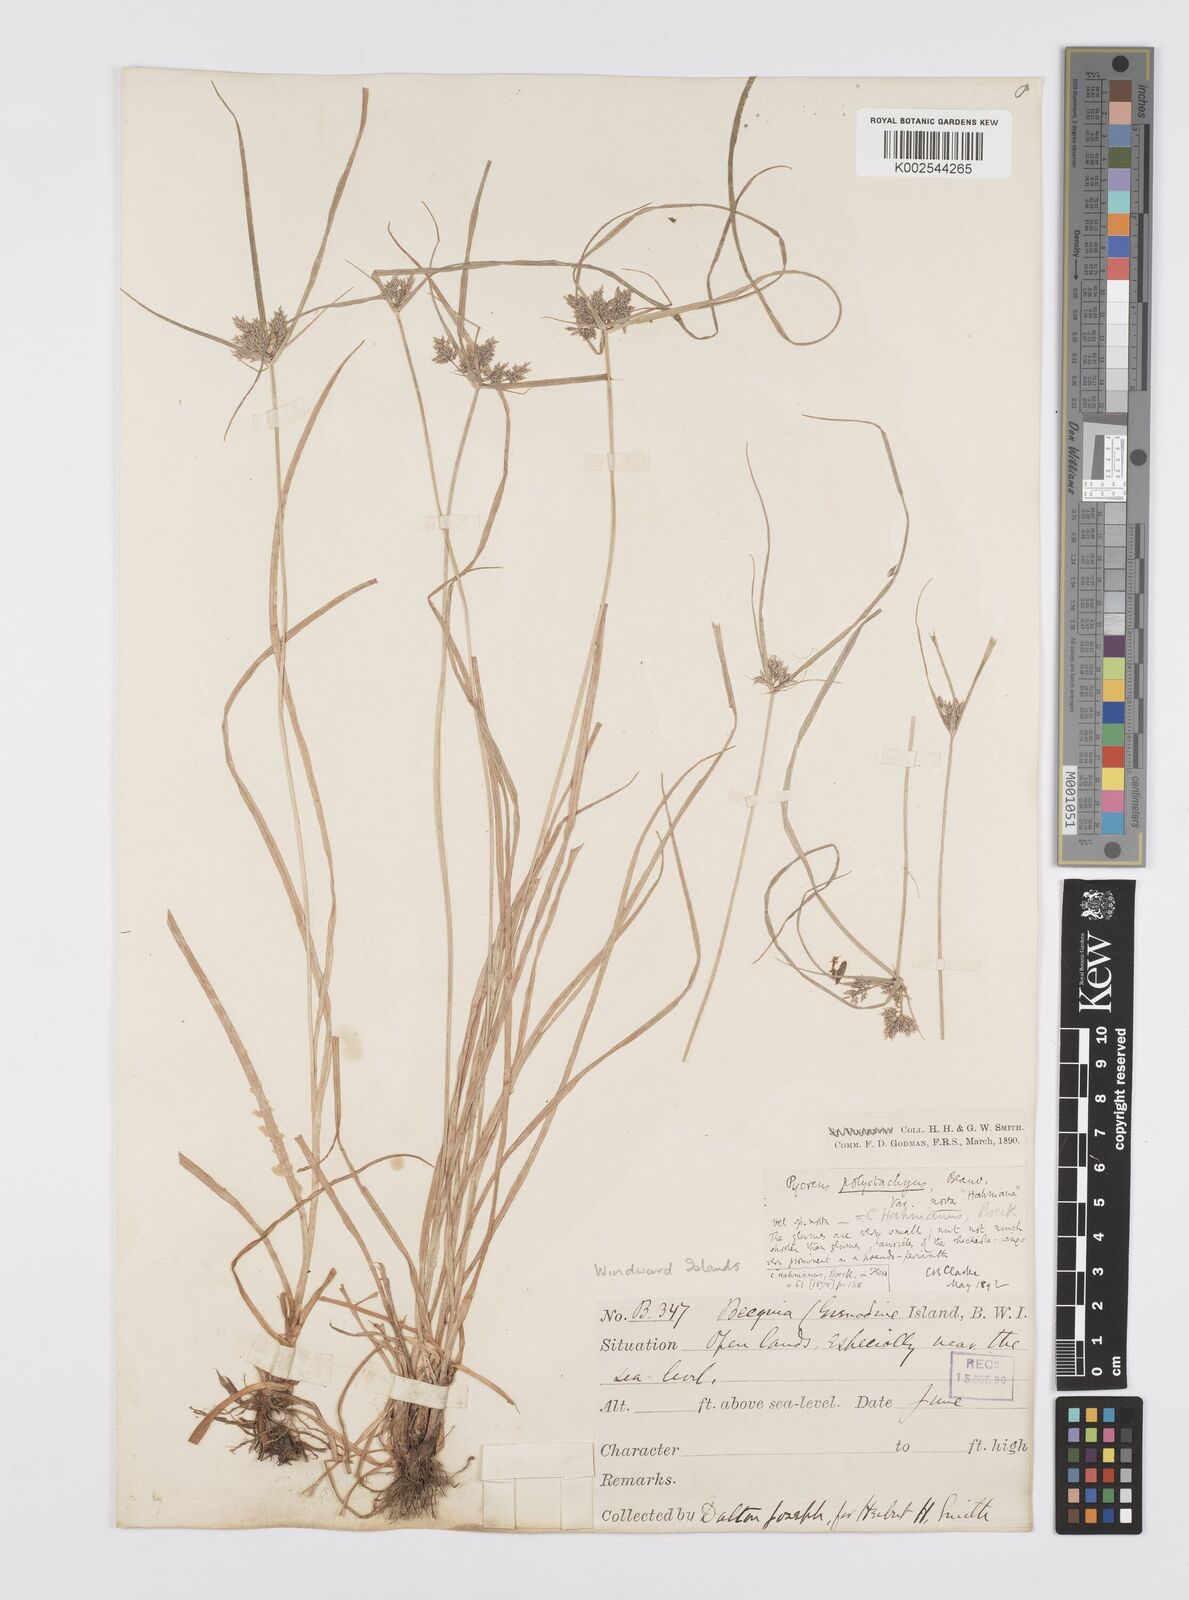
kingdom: Plantae
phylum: Tracheophyta
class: Liliopsida
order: Poales
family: Cyperaceae
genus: Cyperus
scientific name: Cyperus polystachyos
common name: Bunchy flat sedge
